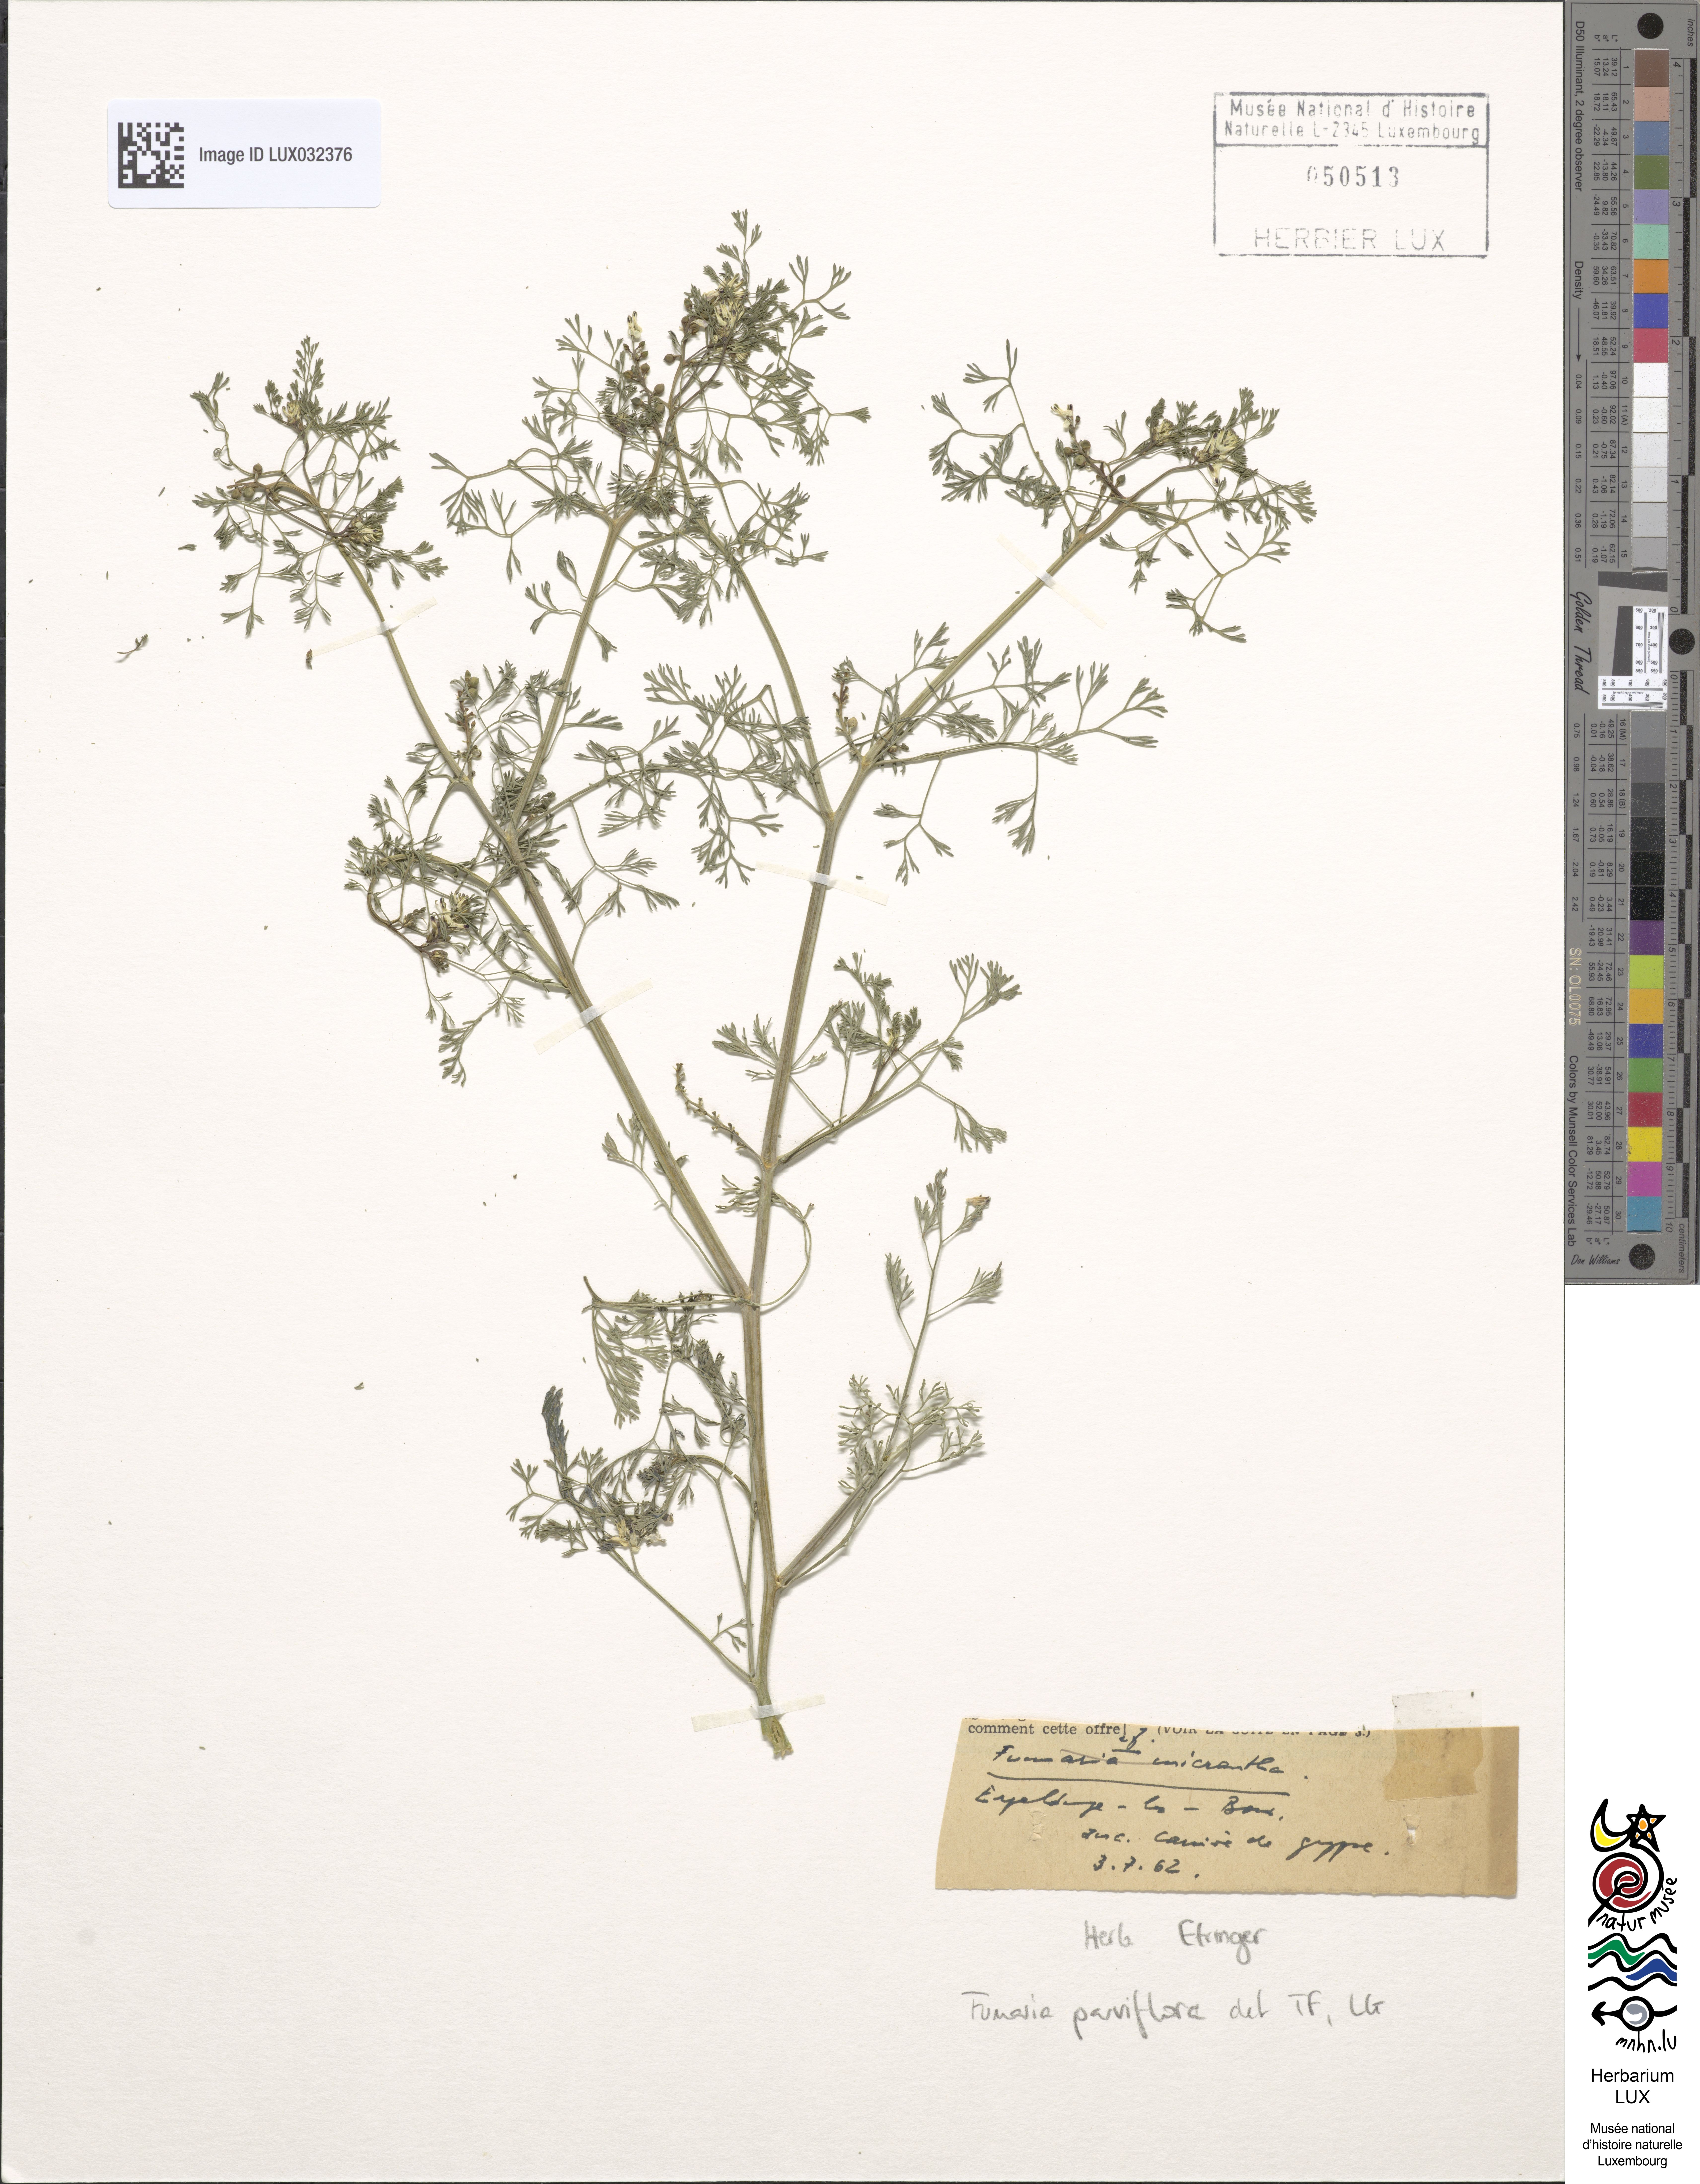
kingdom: Plantae
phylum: Tracheophyta
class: Magnoliopsida
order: Ranunculales
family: Papaveraceae
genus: Fumaria
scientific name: Fumaria parviflora
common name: Fine-leaved fumitory
